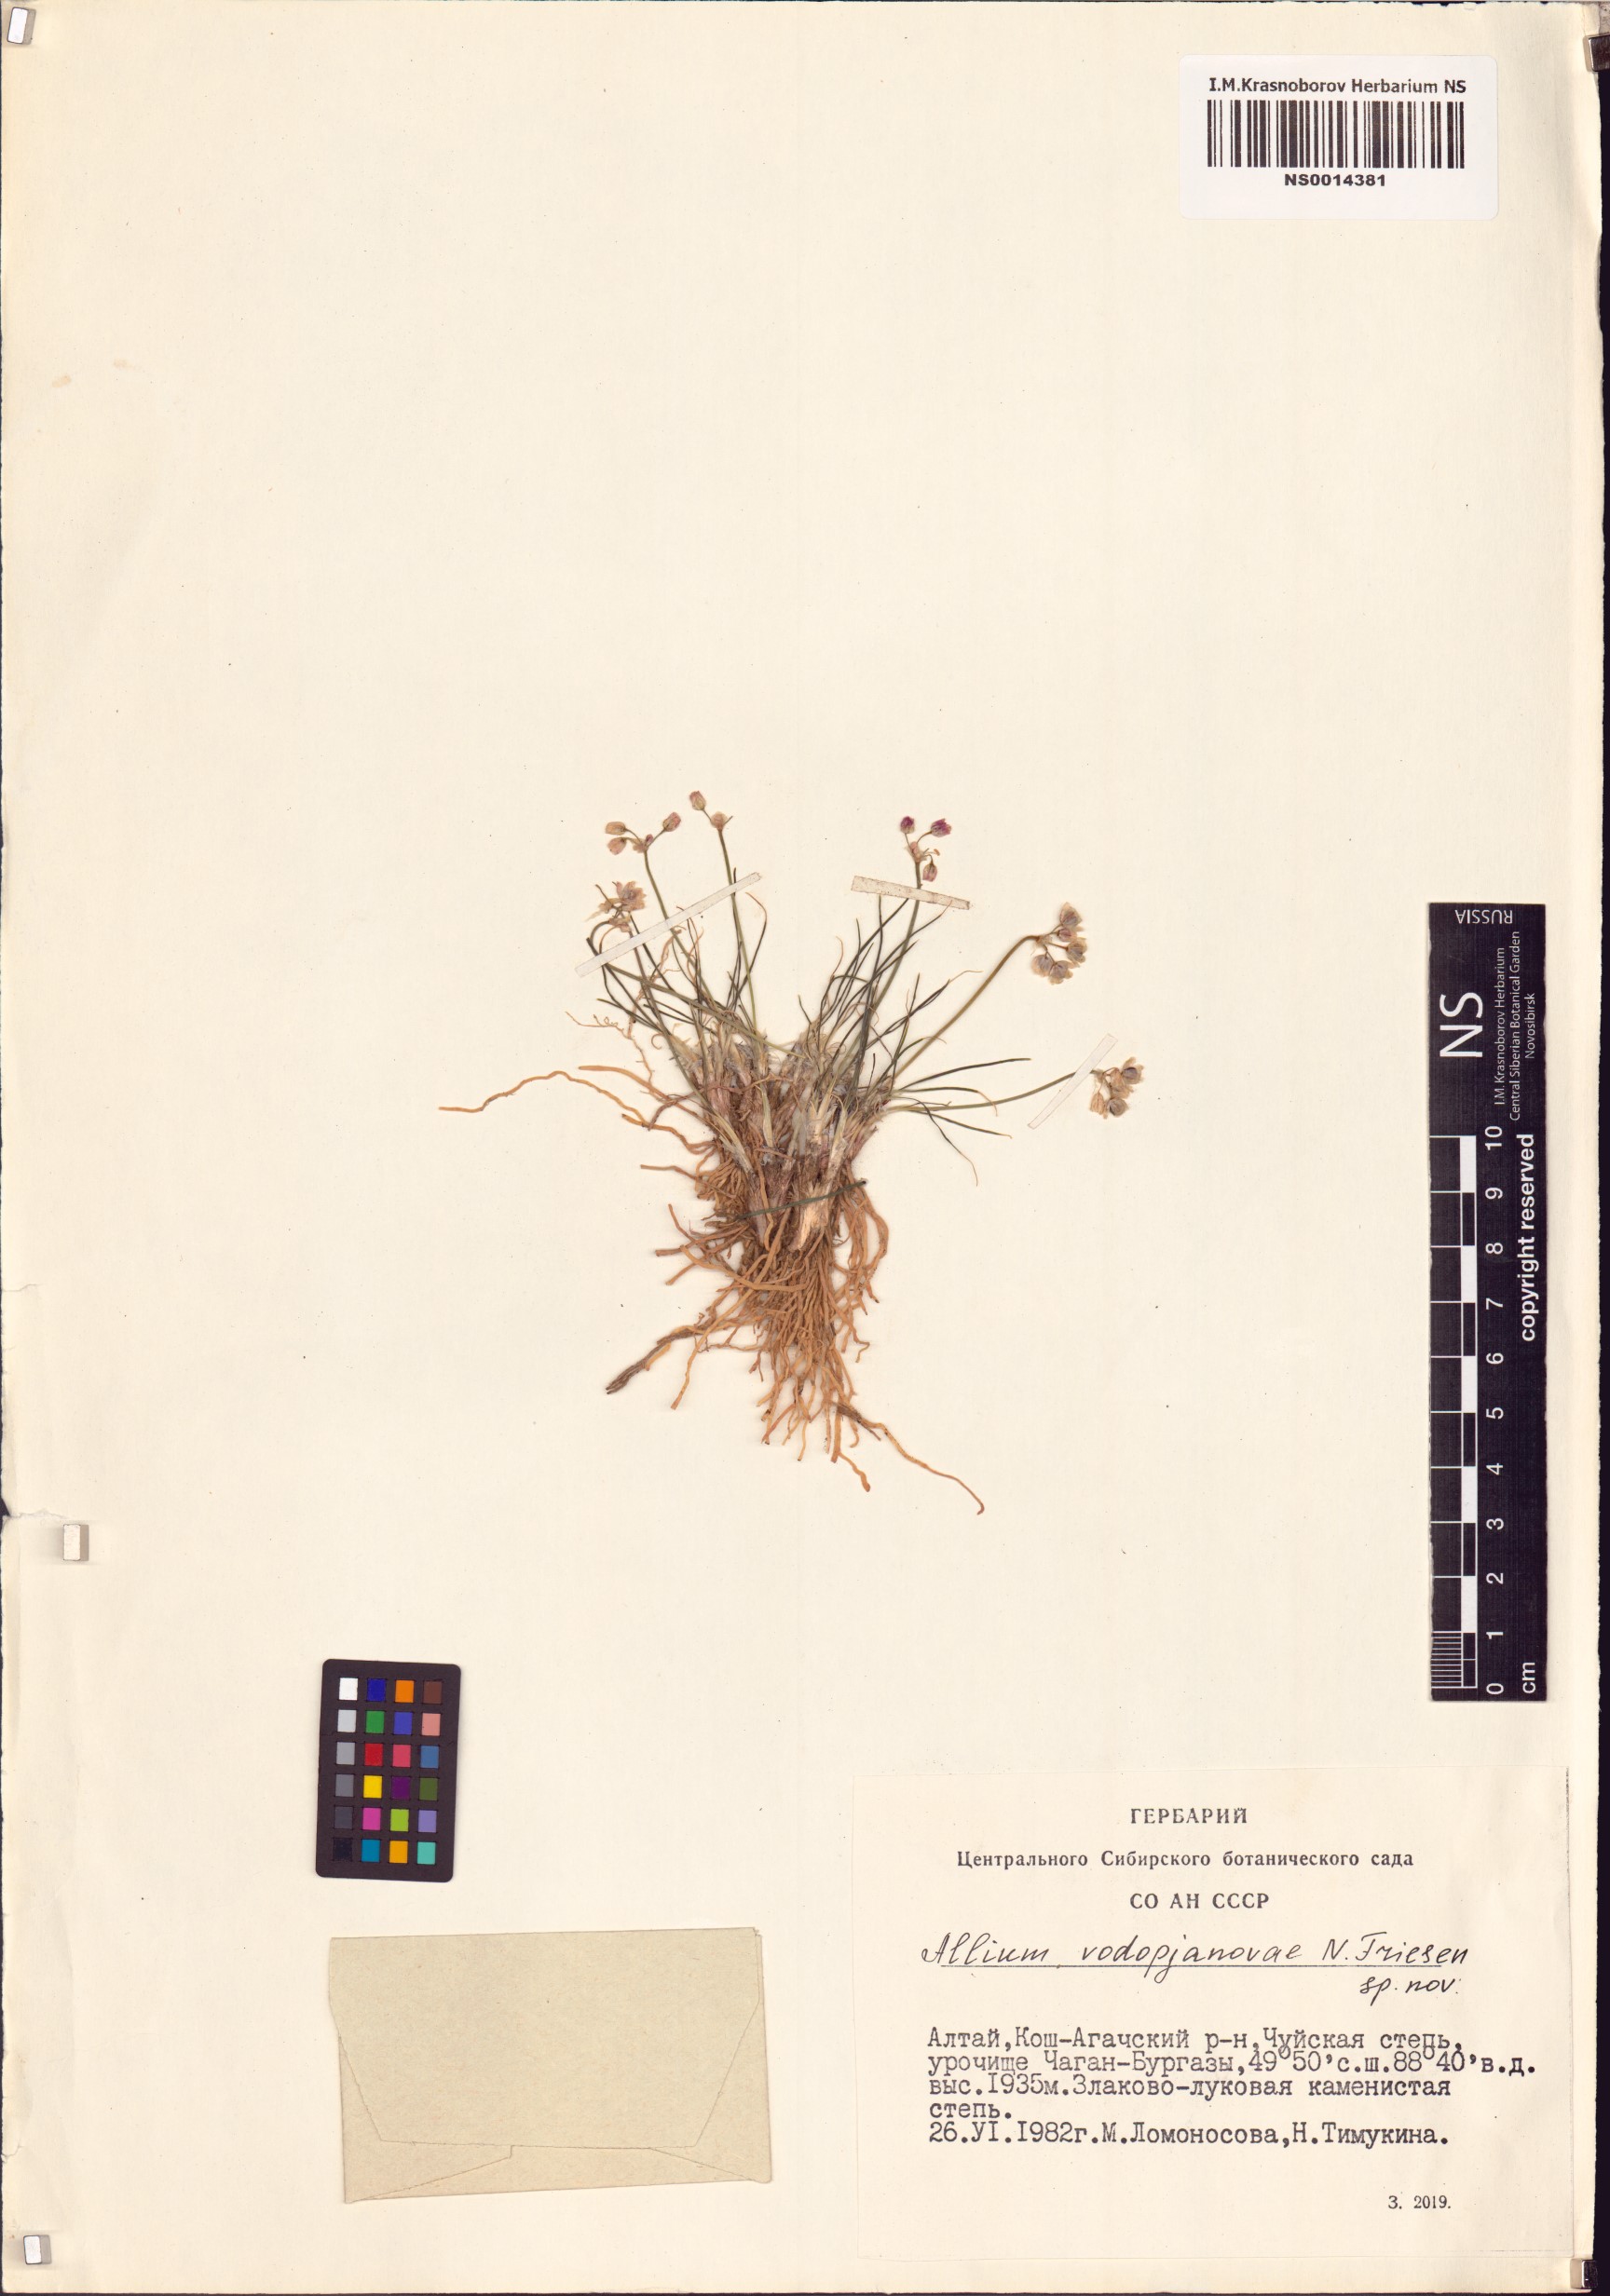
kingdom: Plantae
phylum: Tracheophyta
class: Liliopsida
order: Asparagales
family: Amaryllidaceae
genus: Allium
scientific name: Allium vodopjanovae
